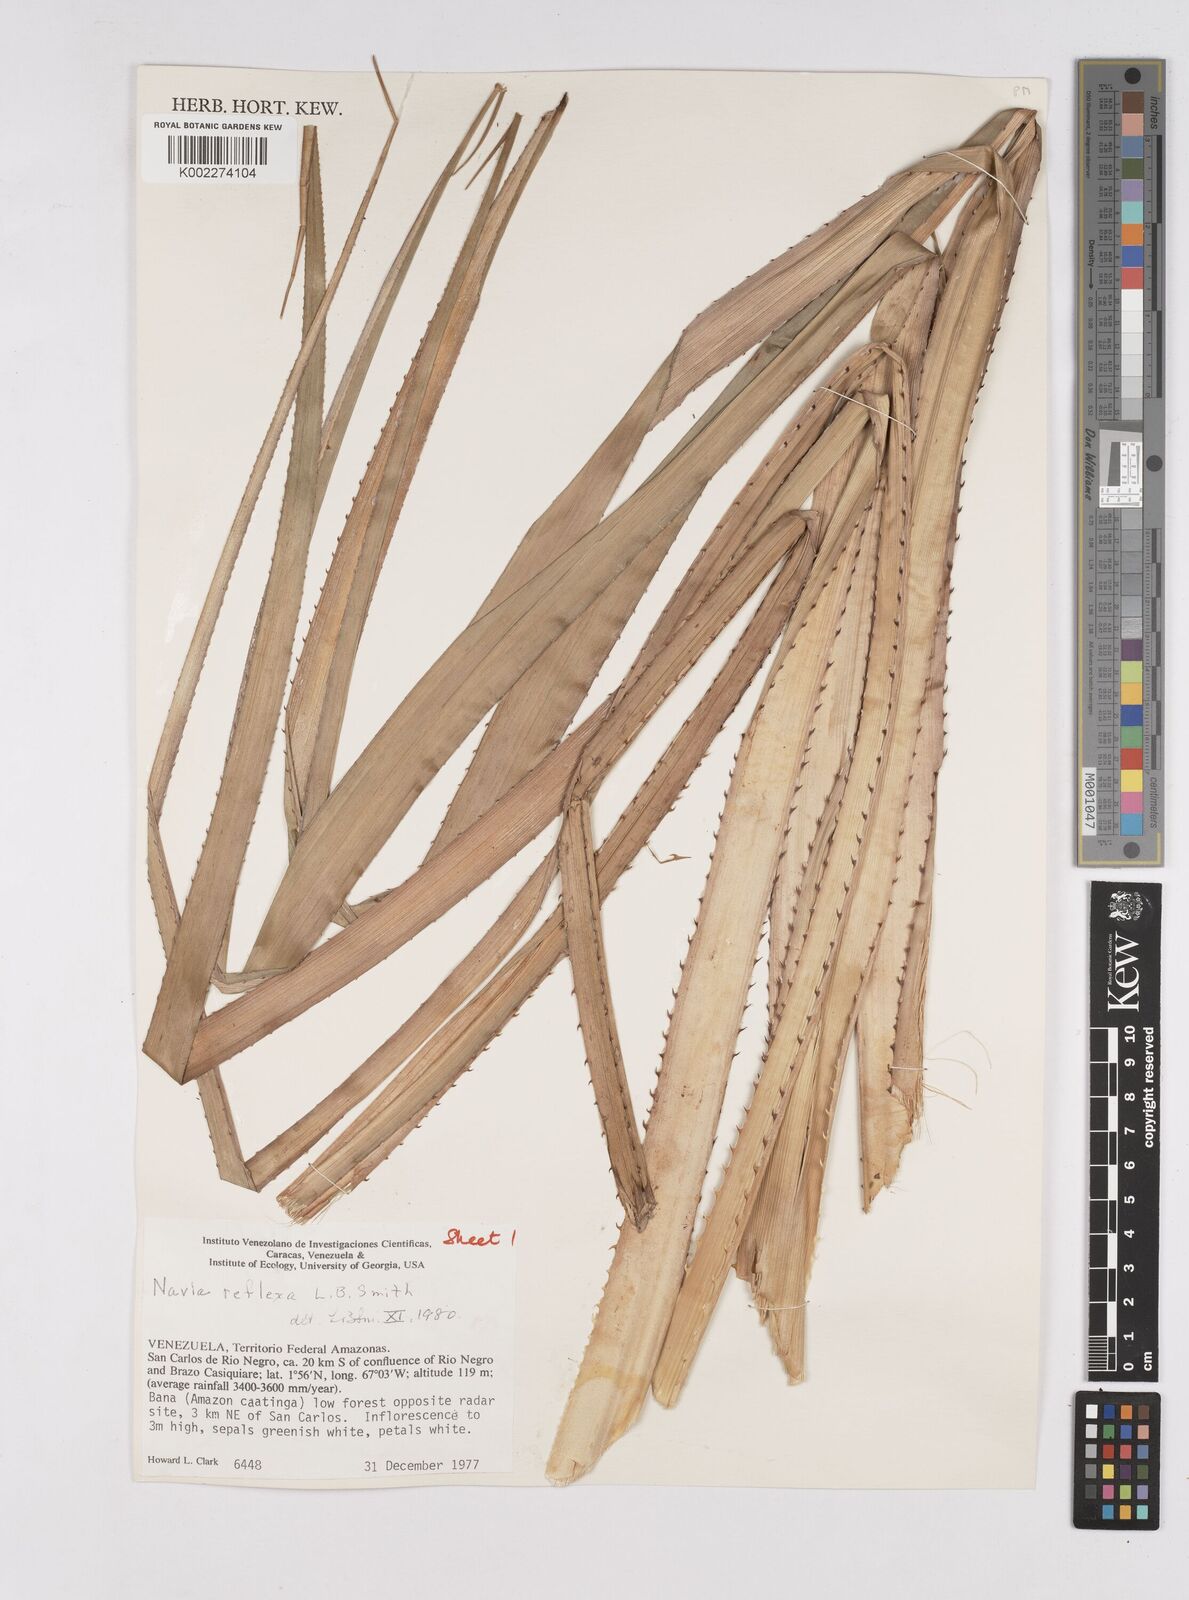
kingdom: Plantae
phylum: Tracheophyta
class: Liliopsida
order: Poales
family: Bromeliaceae
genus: Navia
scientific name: Navia reflexa
